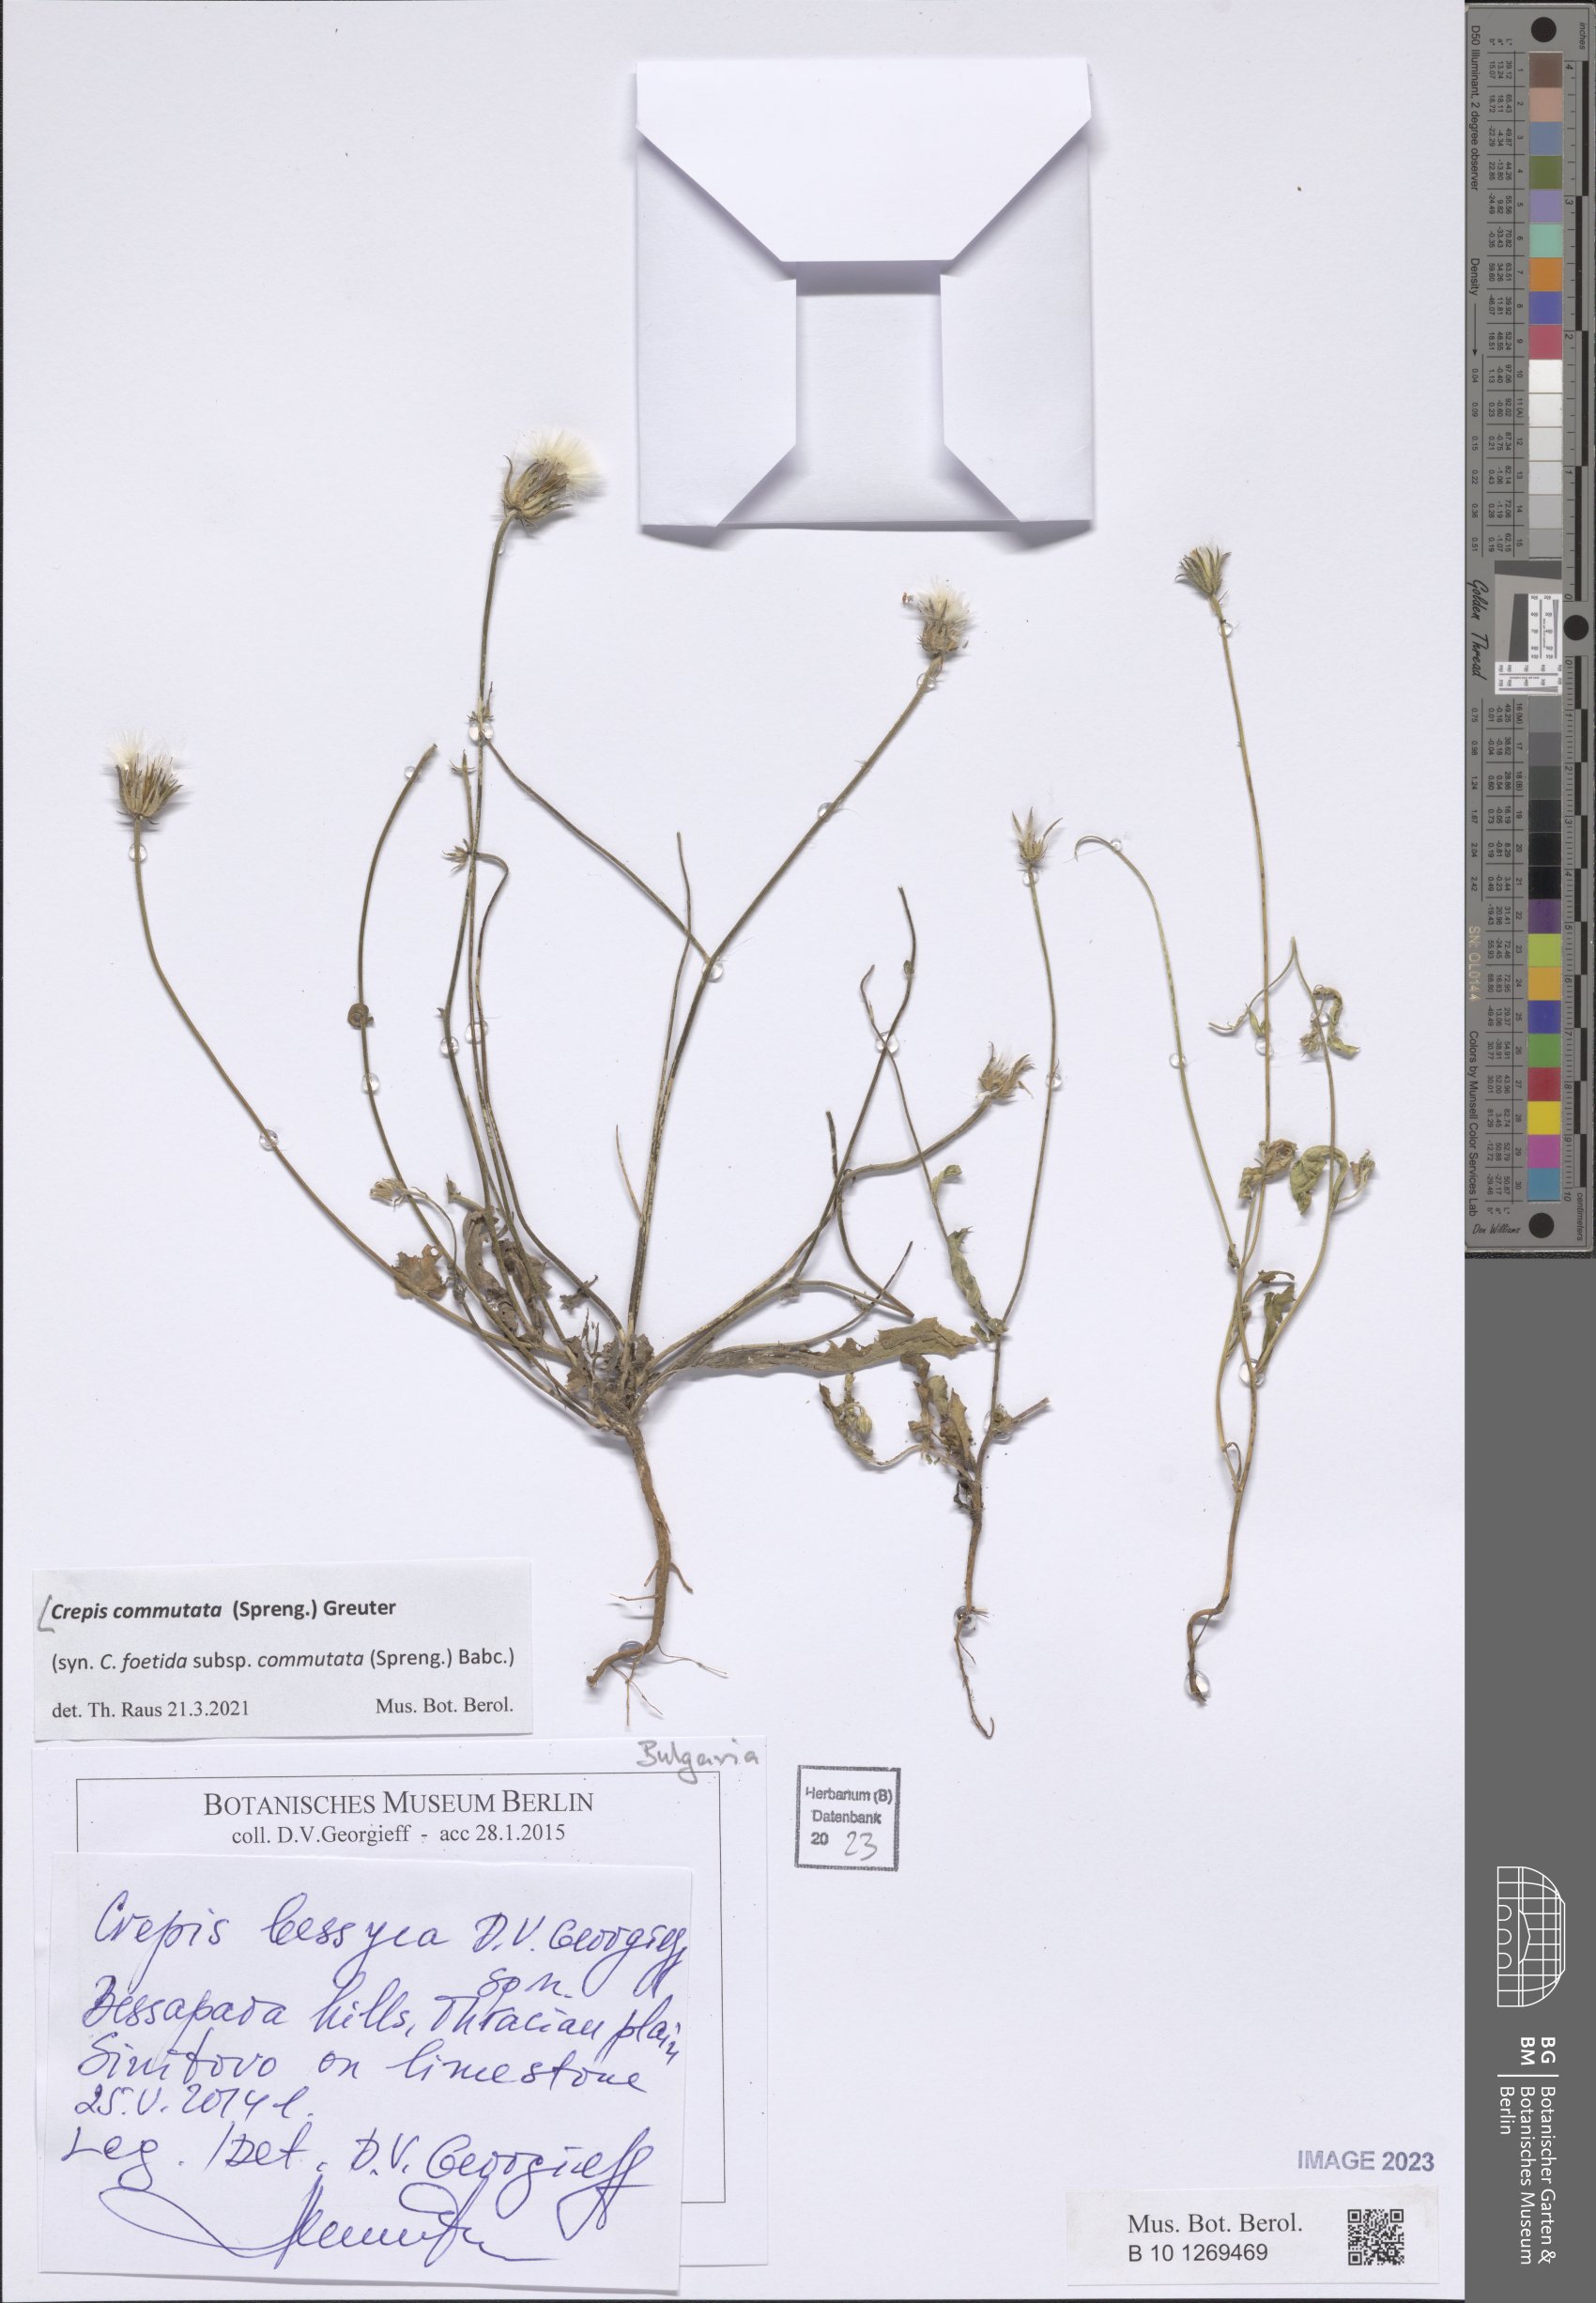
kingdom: Plantae
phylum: Tracheophyta
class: Magnoliopsida
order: Asterales
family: Asteraceae
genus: Crepis
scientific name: Crepis commutata
